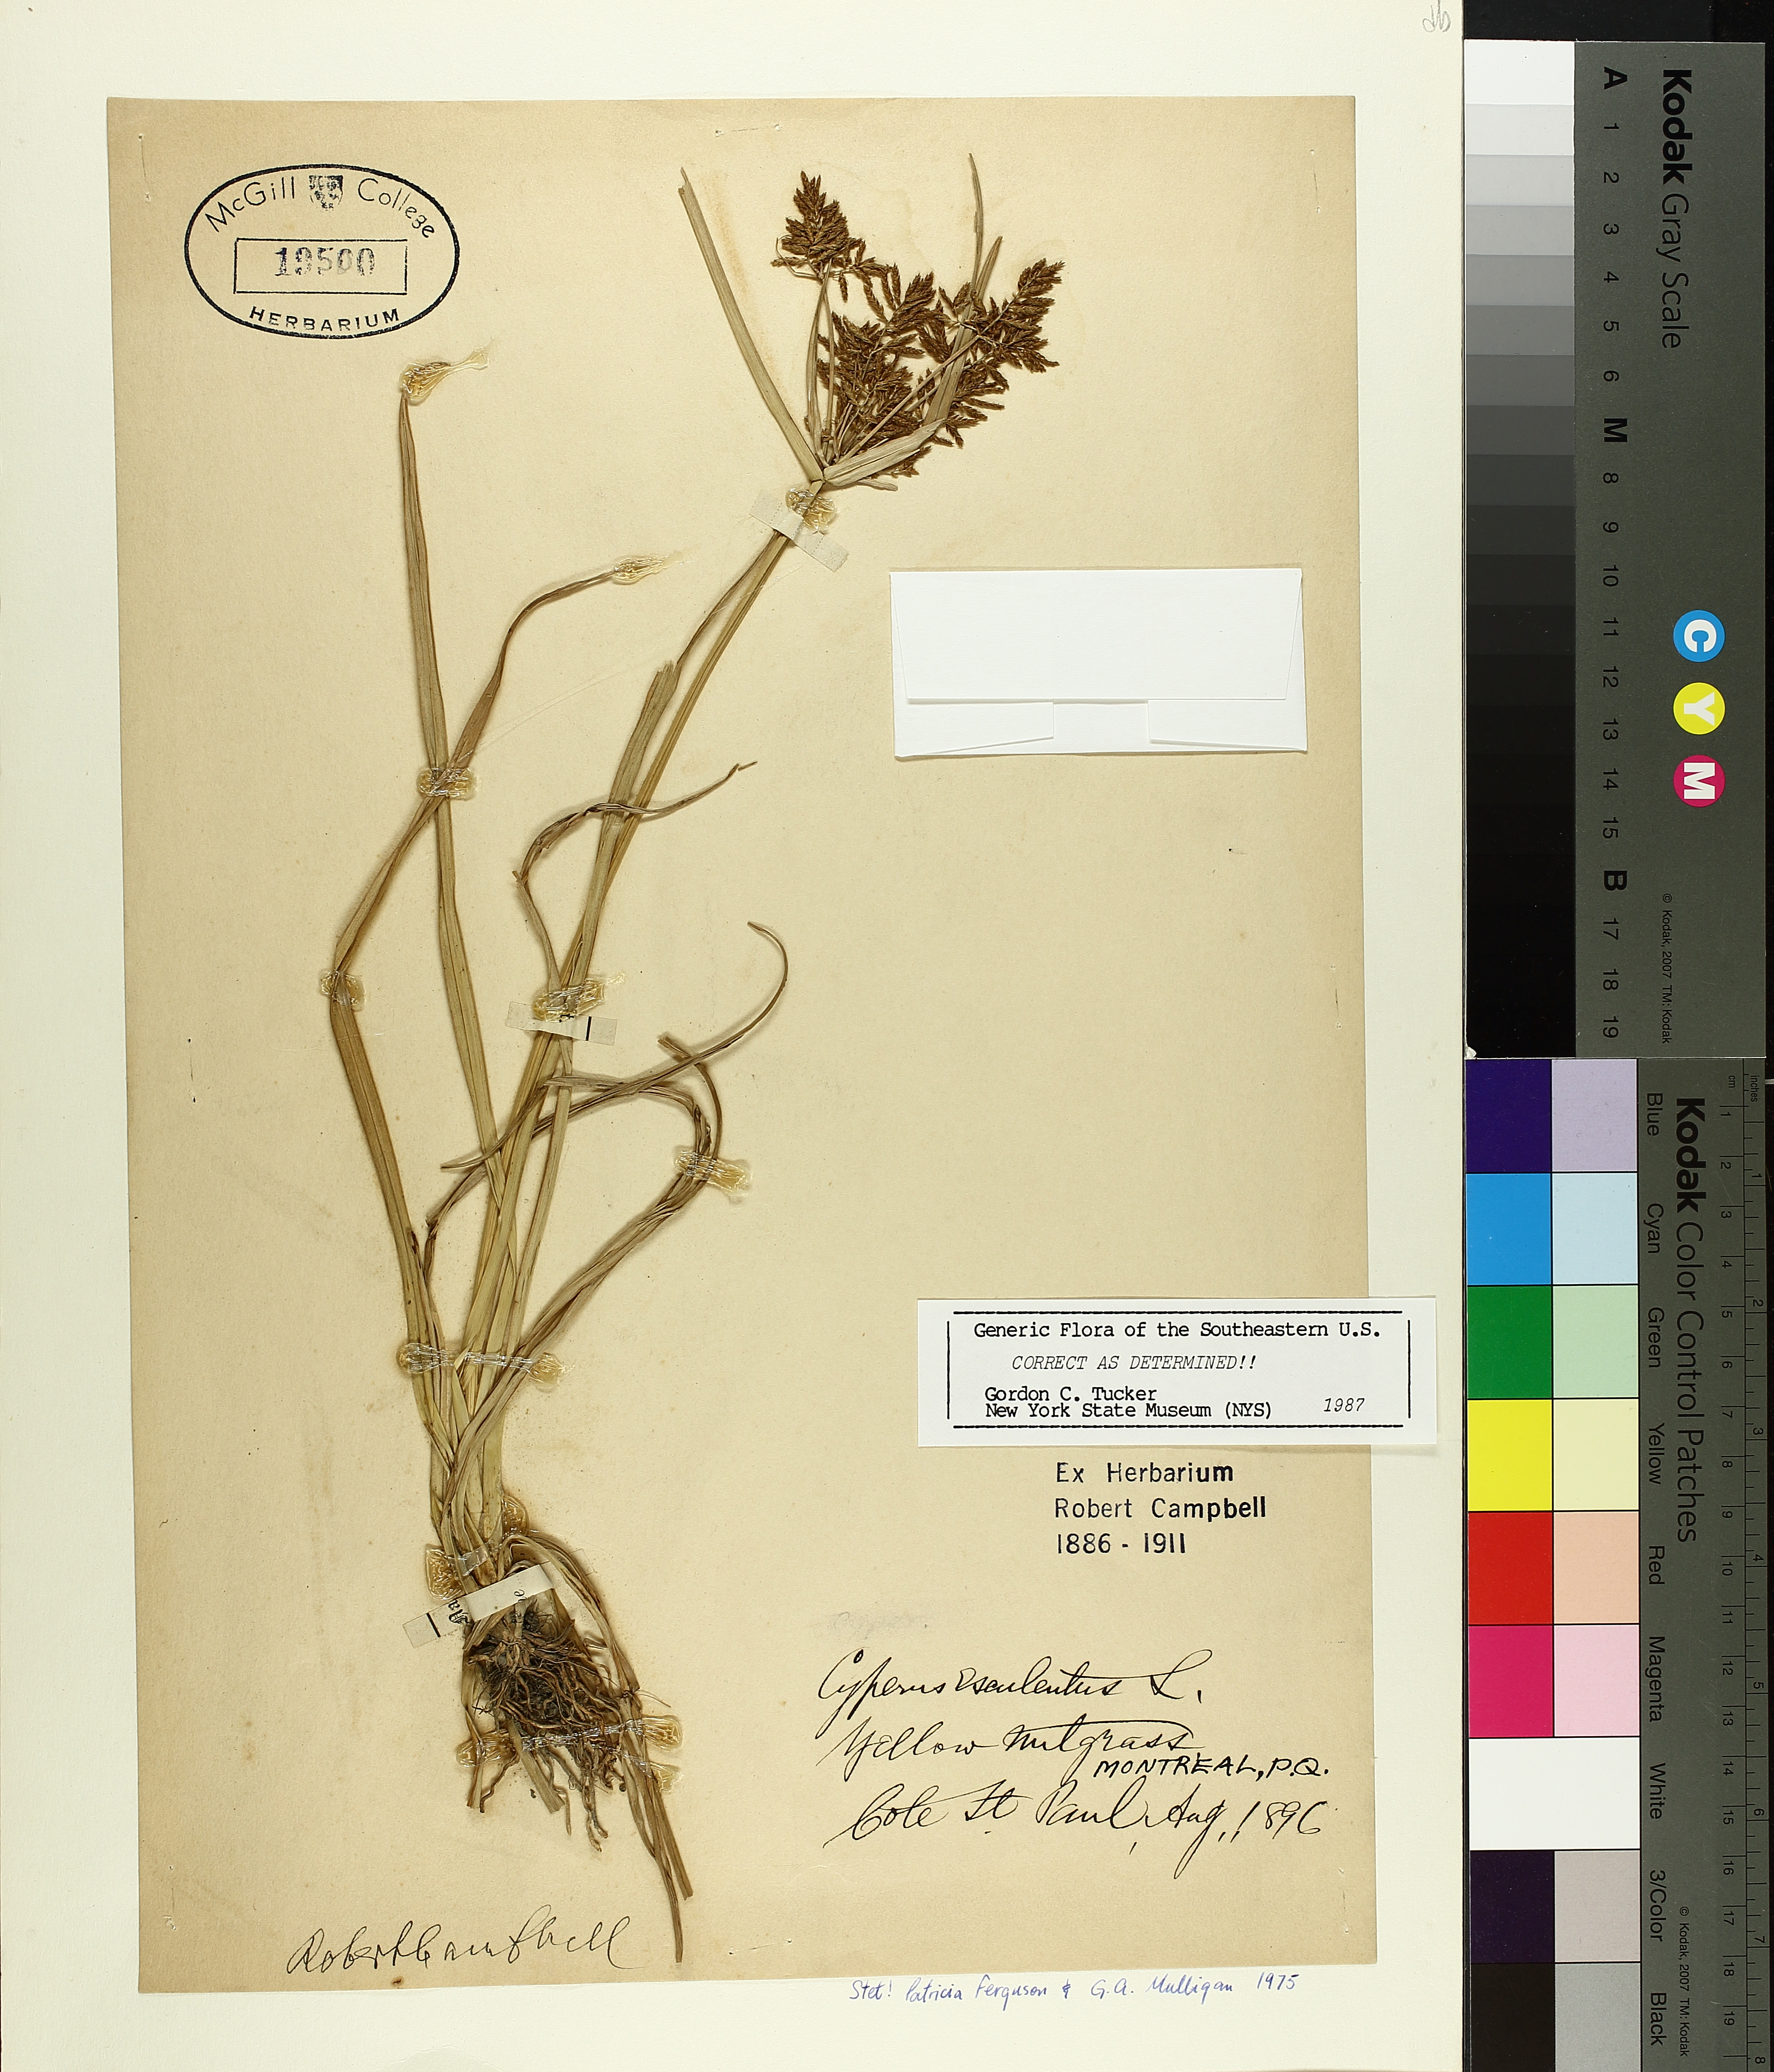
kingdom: Plantae
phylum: Tracheophyta
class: Liliopsida
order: Poales
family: Cyperaceae
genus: Cyperus
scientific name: Cyperus esculentus
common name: Yellow nutsedge
